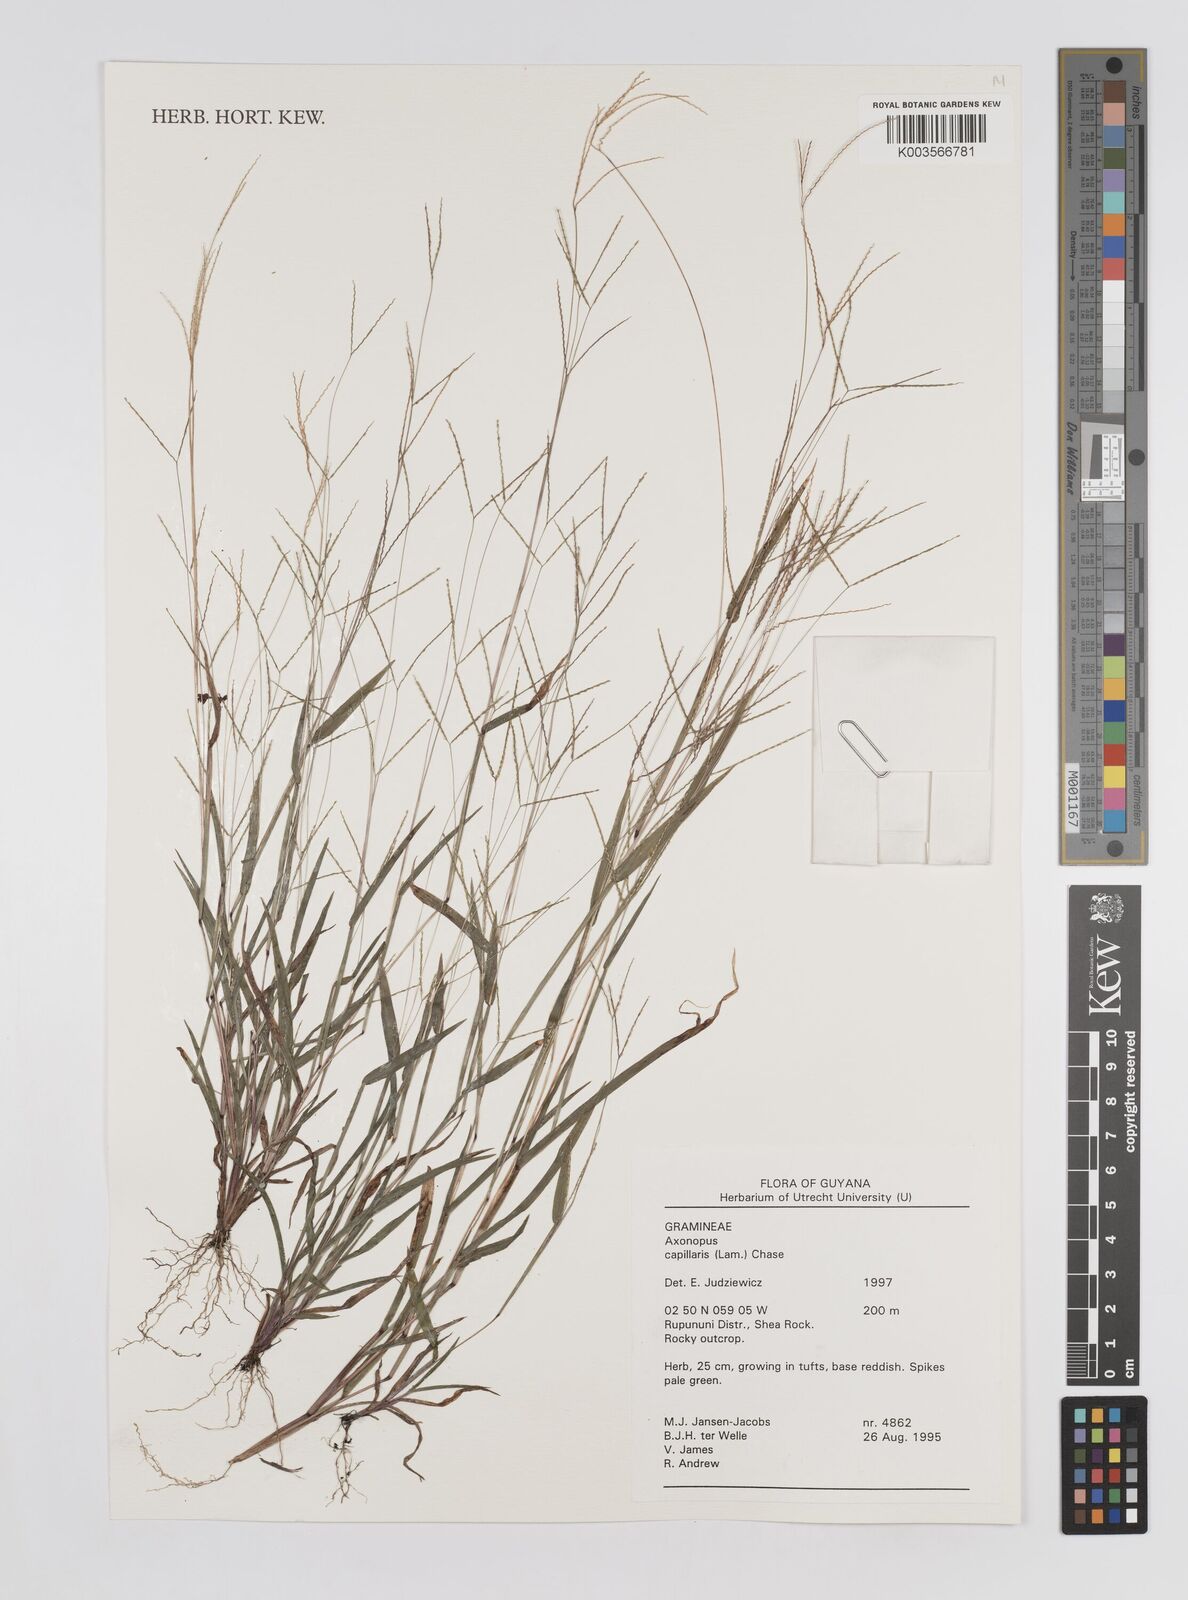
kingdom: Plantae
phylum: Tracheophyta
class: Liliopsida
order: Poales
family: Poaceae
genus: Axonopus
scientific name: Axonopus capillaris
